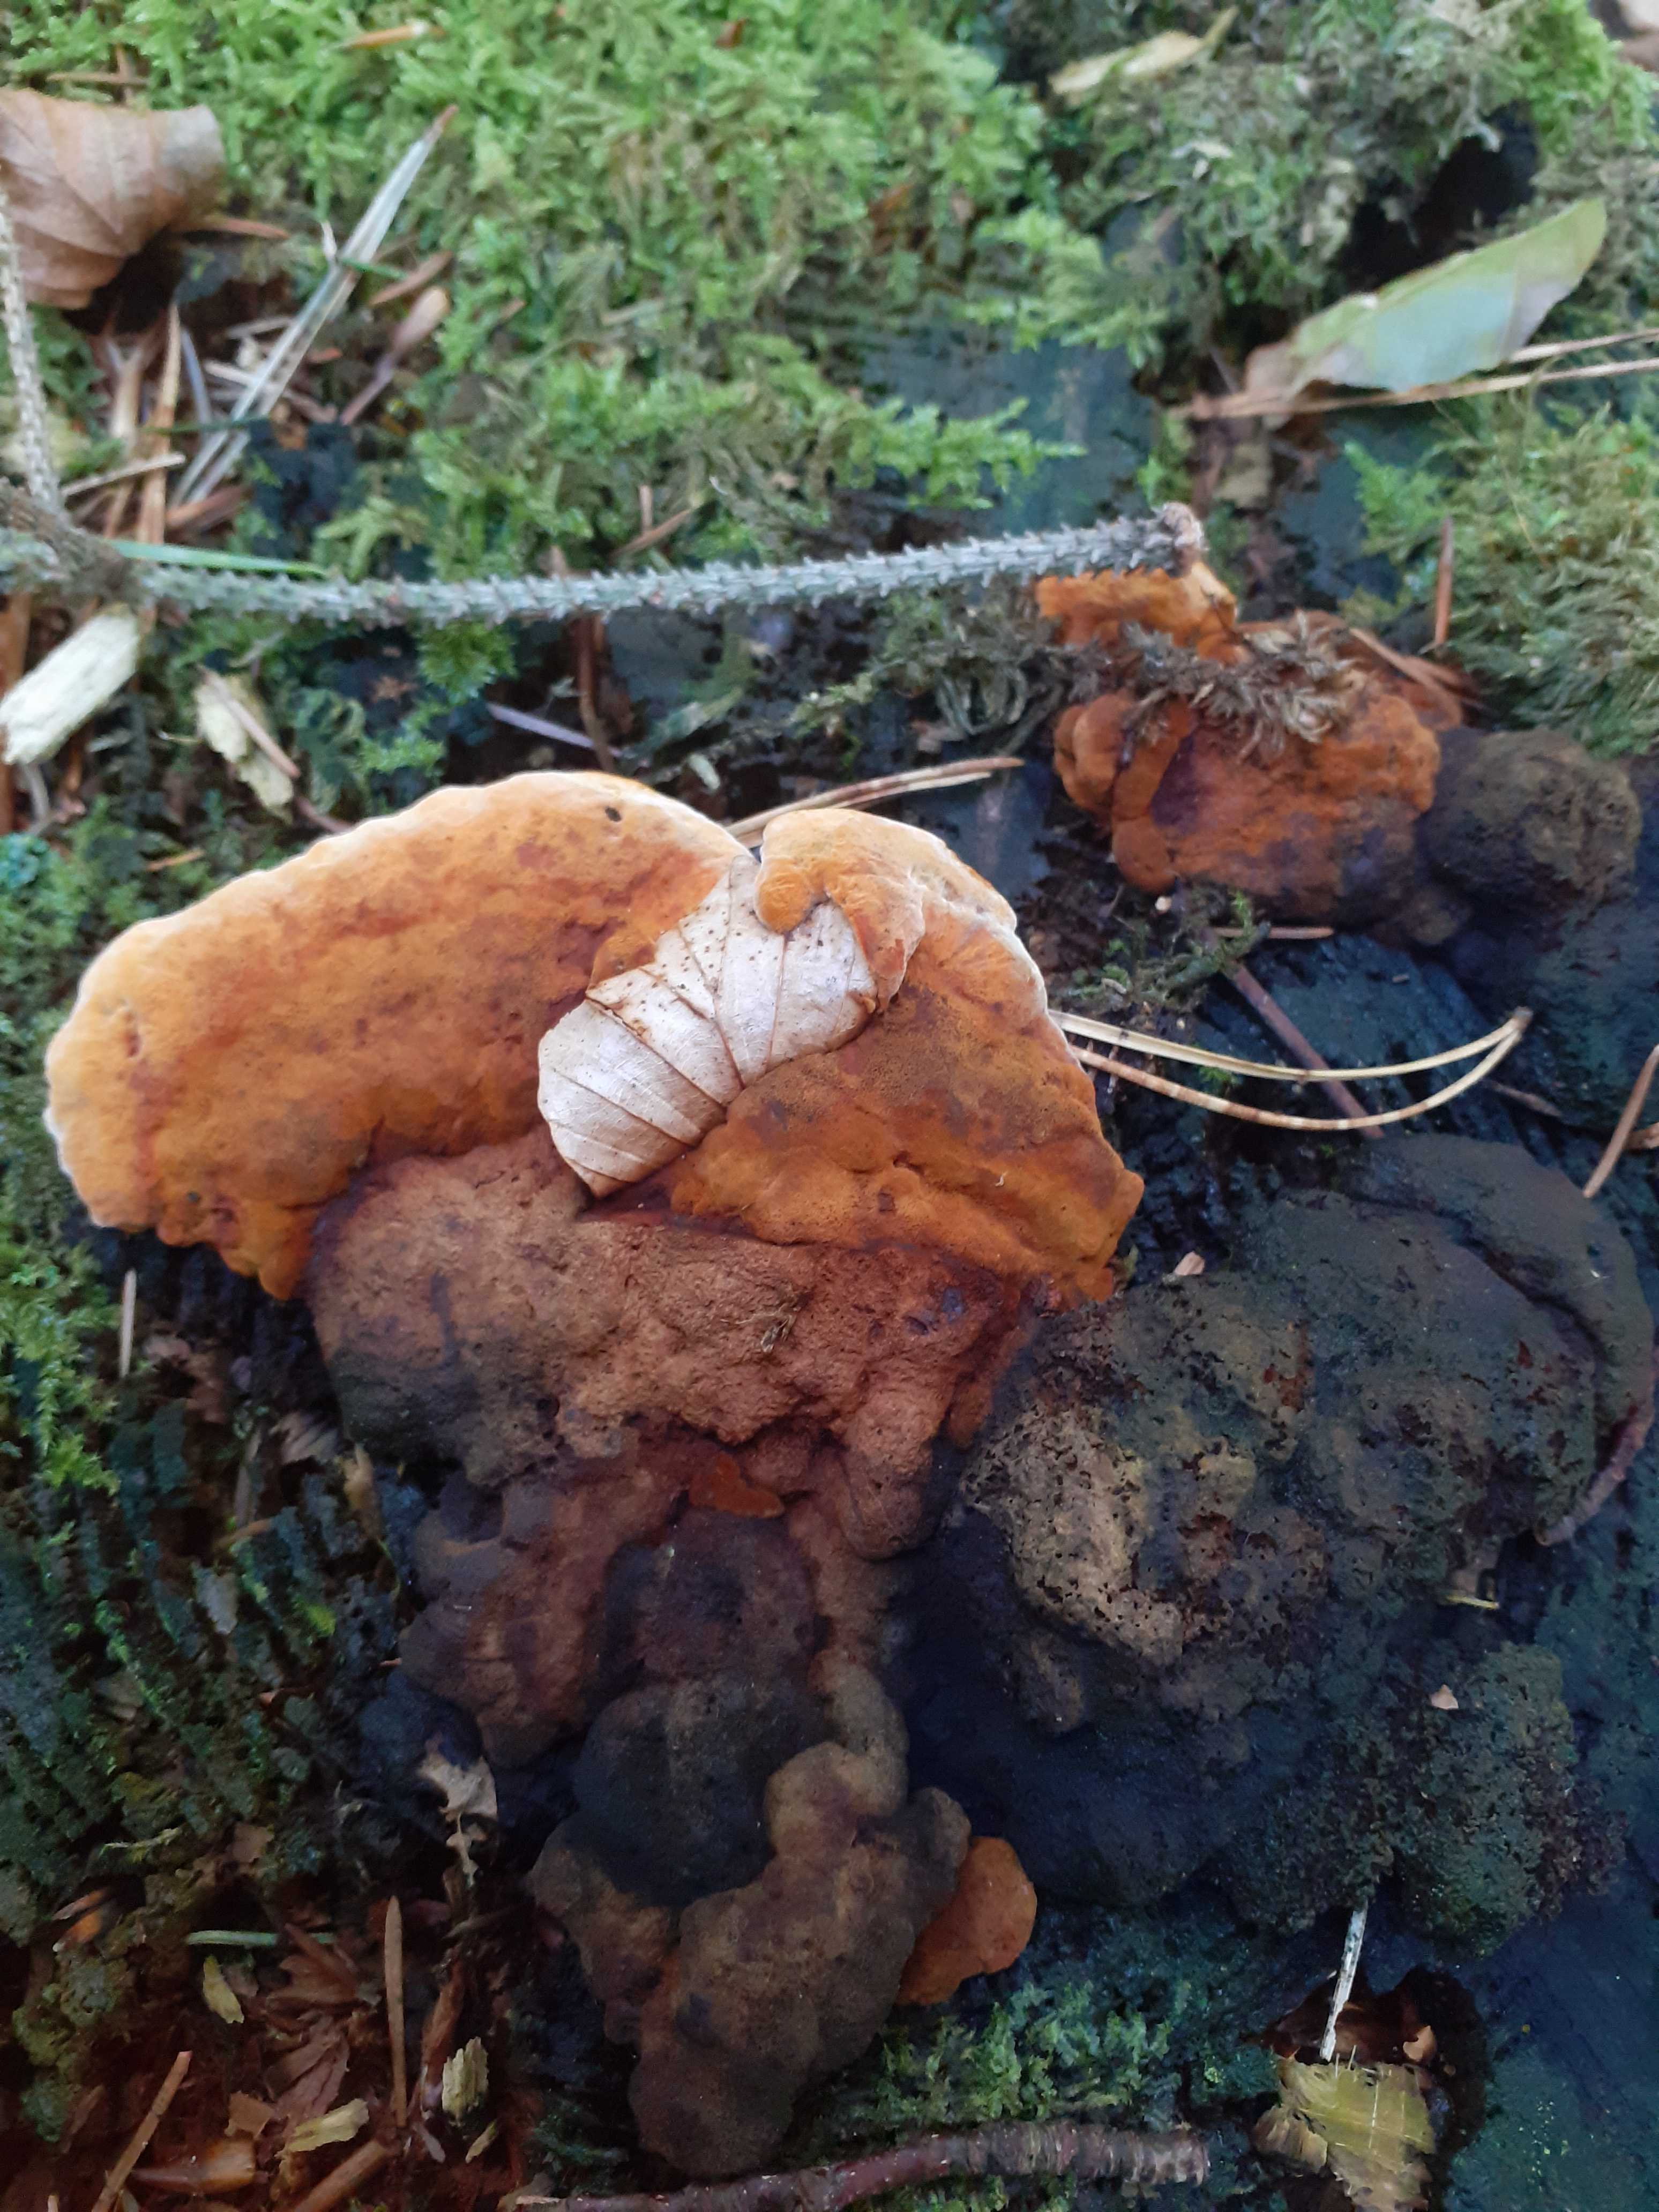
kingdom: Fungi
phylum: Basidiomycota
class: Agaricomycetes
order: Polyporales
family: Ischnodermataceae
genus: Ischnoderma
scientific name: Ischnoderma benzoinum
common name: gran-tjæreporesvamp
